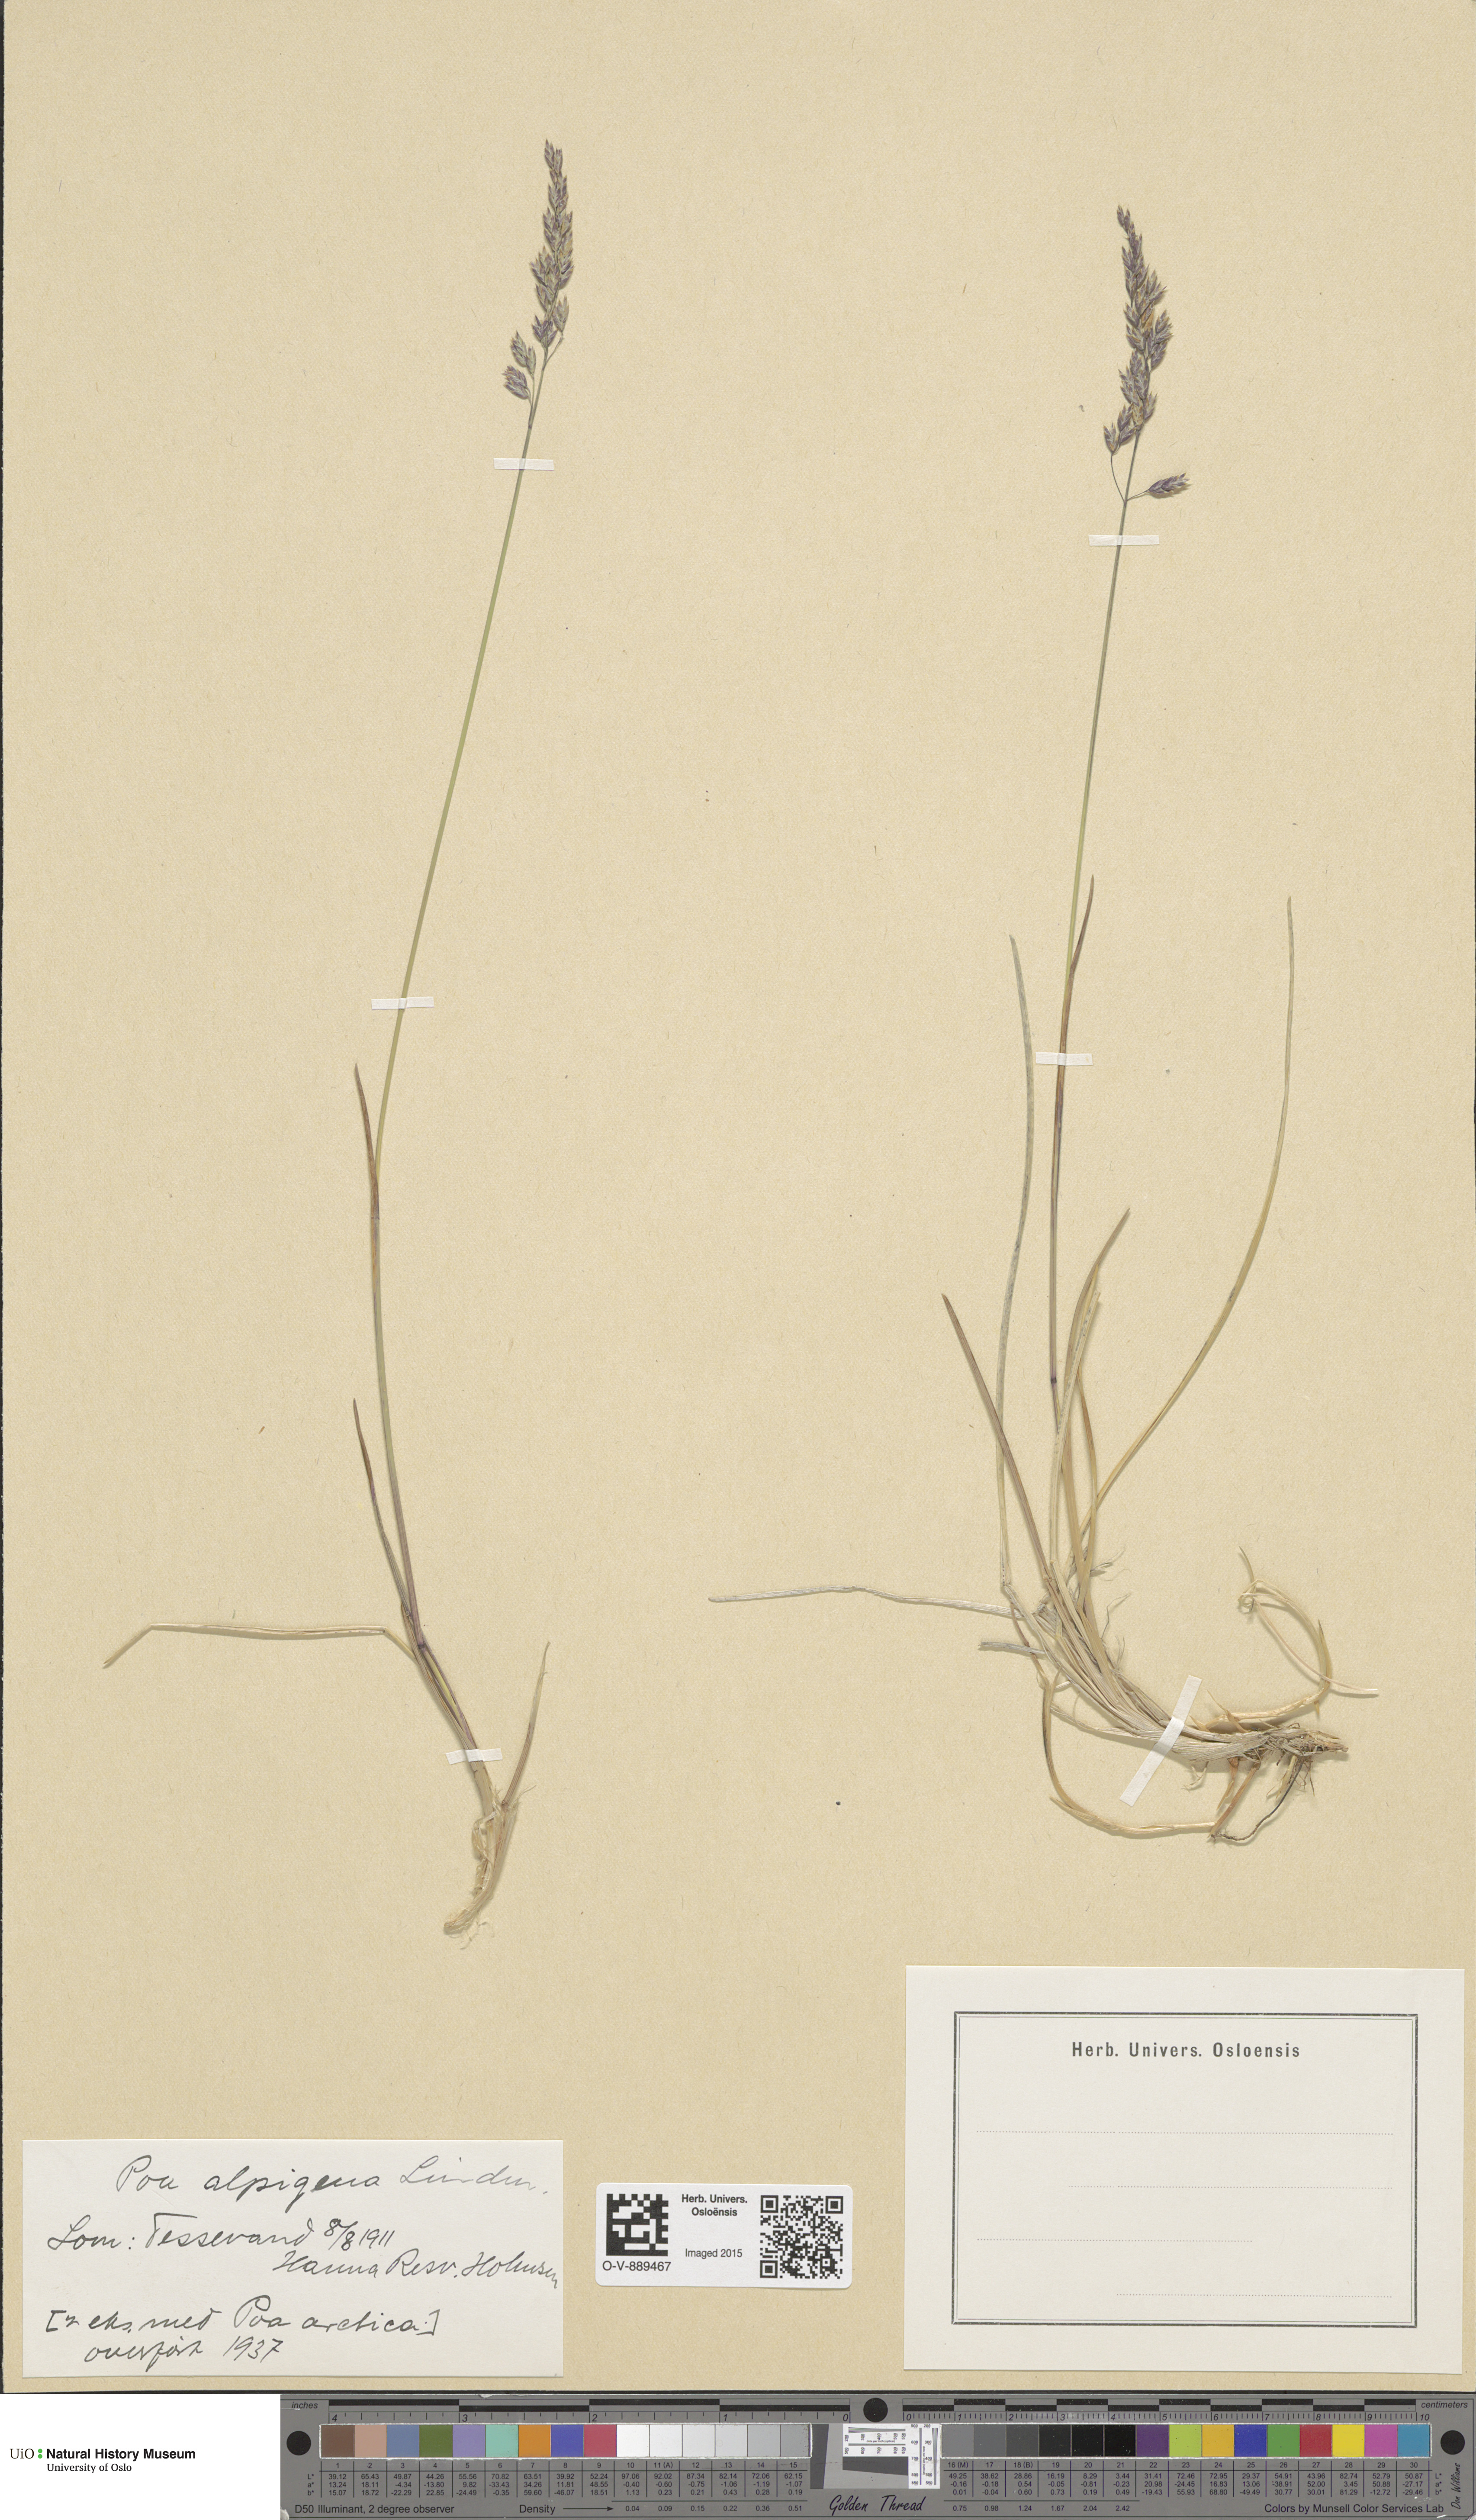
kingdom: Plantae
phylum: Tracheophyta
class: Liliopsida
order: Poales
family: Poaceae
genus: Poa
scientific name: Poa alpigena
